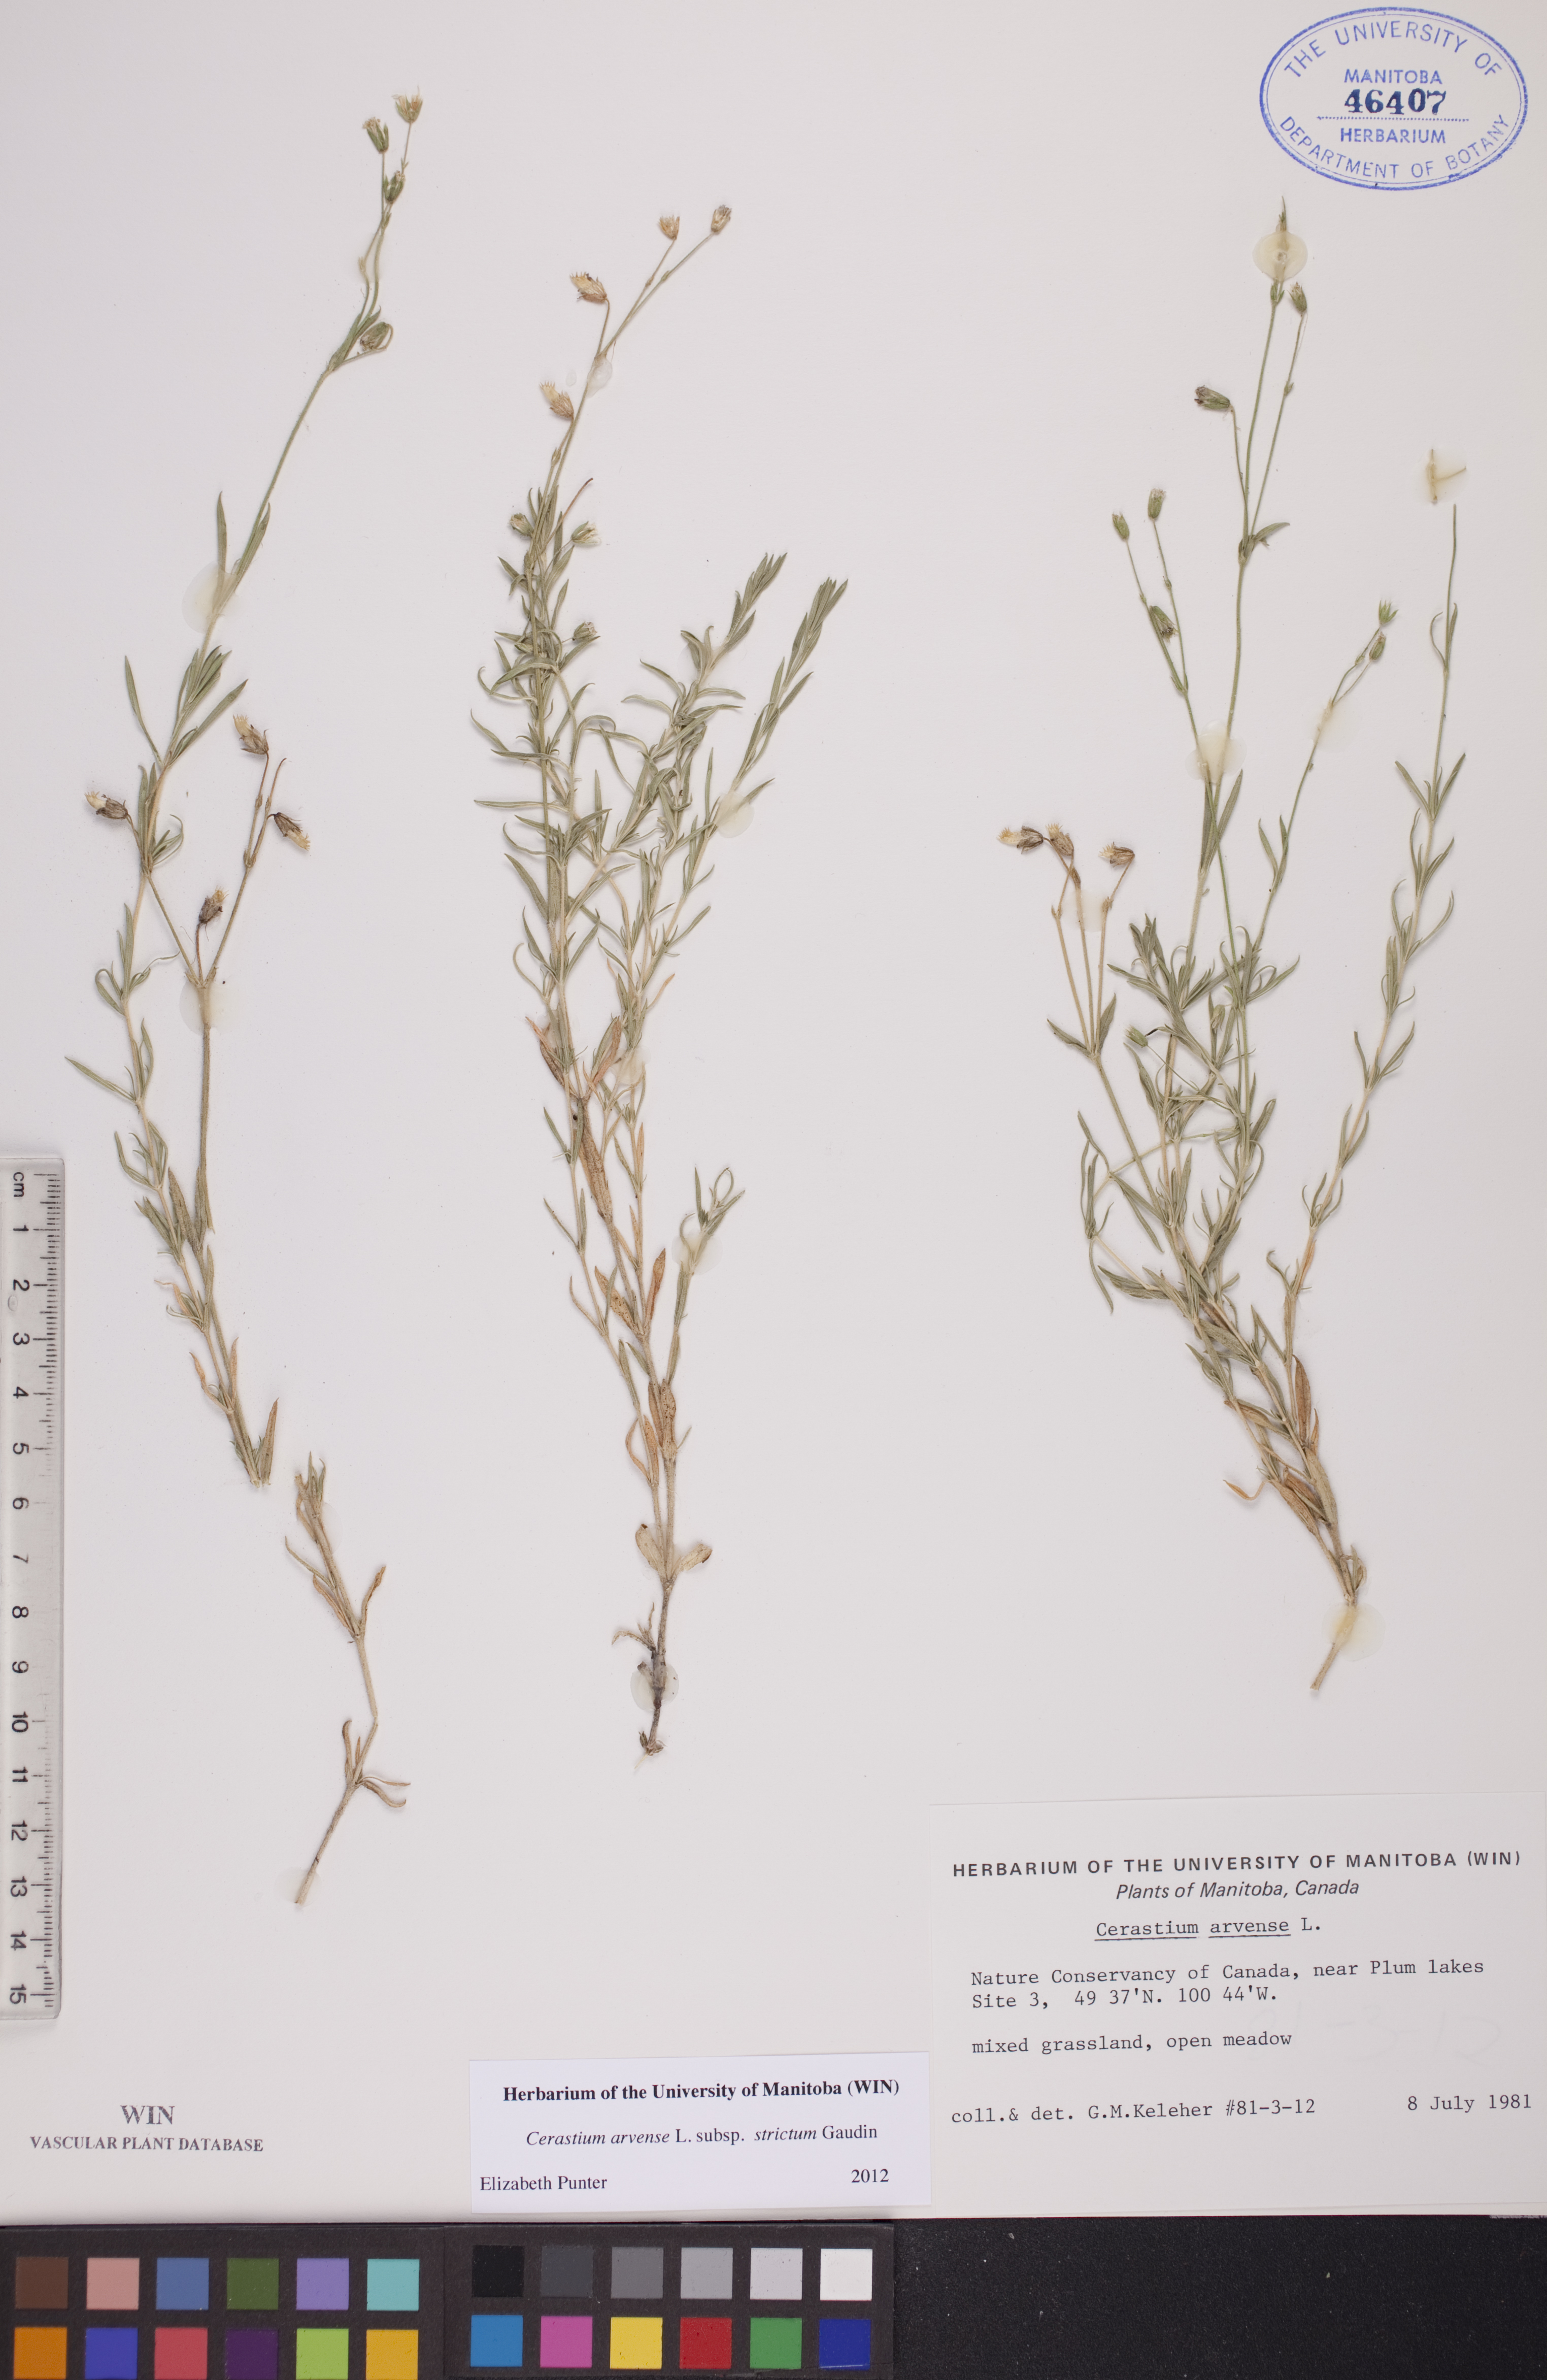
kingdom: Plantae
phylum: Tracheophyta
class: Magnoliopsida
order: Caryophyllales
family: Caryophyllaceae
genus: Cerastium
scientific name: Cerastium elongatum
